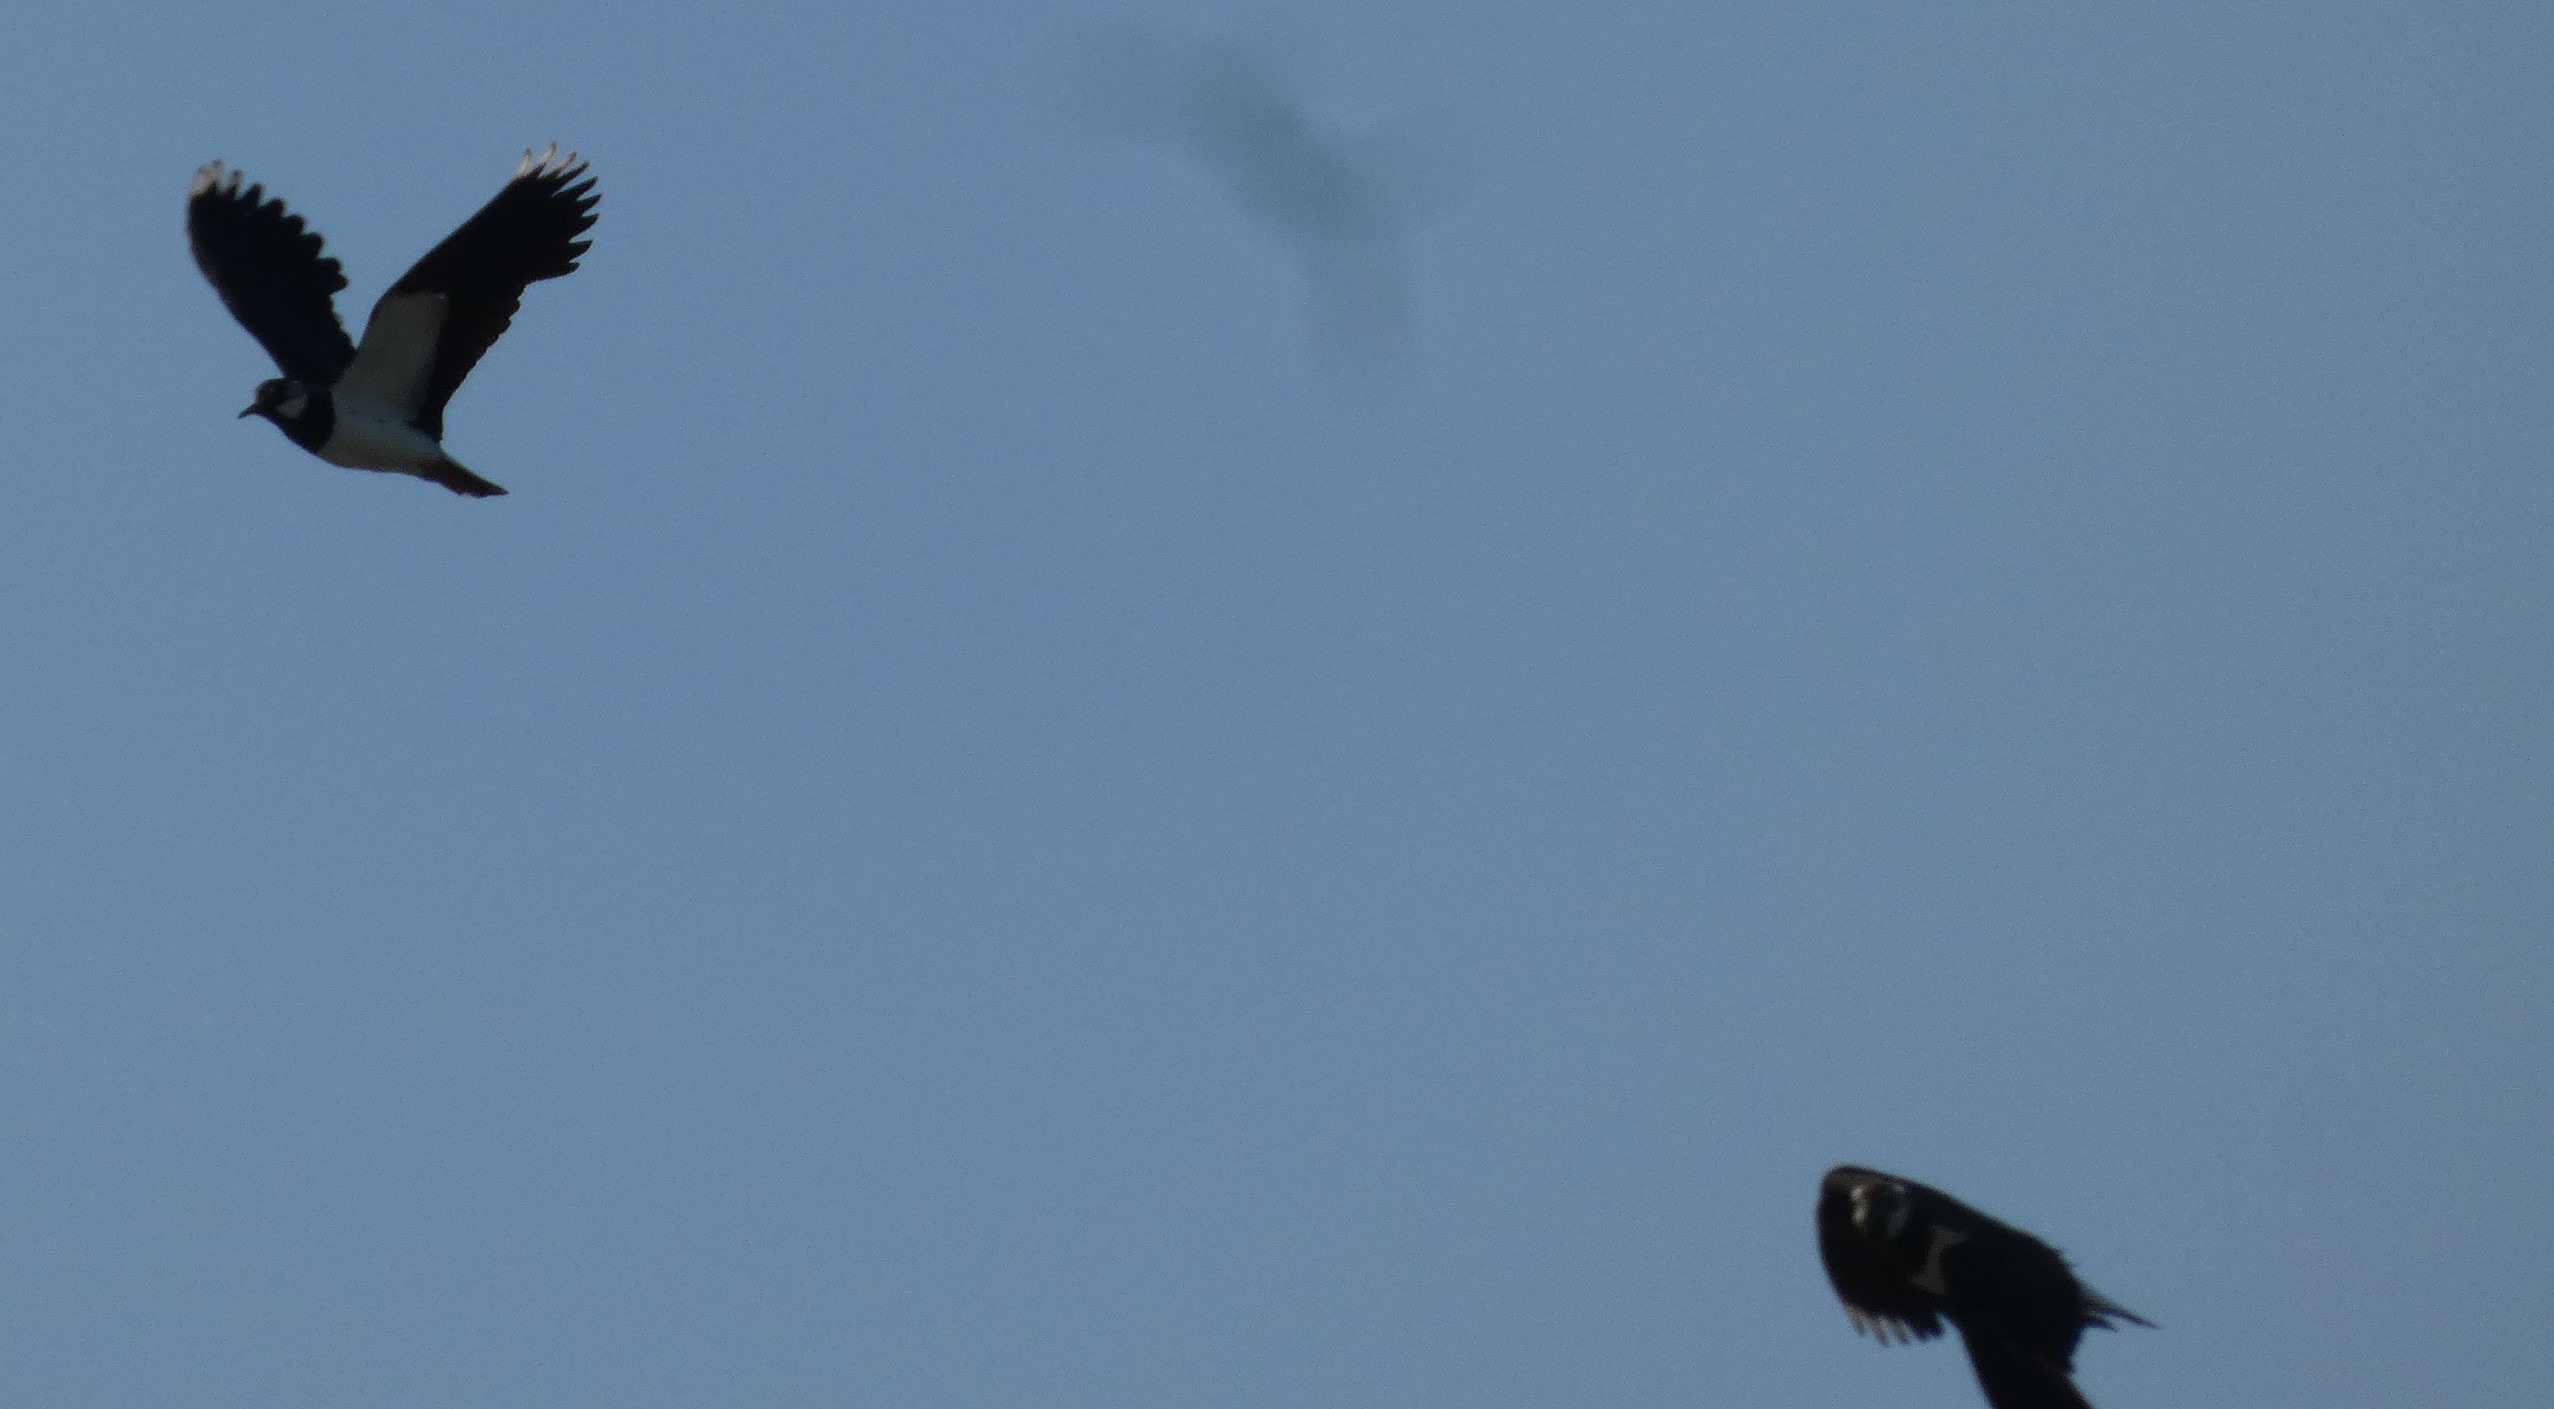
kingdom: Animalia
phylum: Chordata
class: Aves
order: Charadriiformes
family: Charadriidae
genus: Vanellus
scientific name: Vanellus vanellus
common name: Vibe
